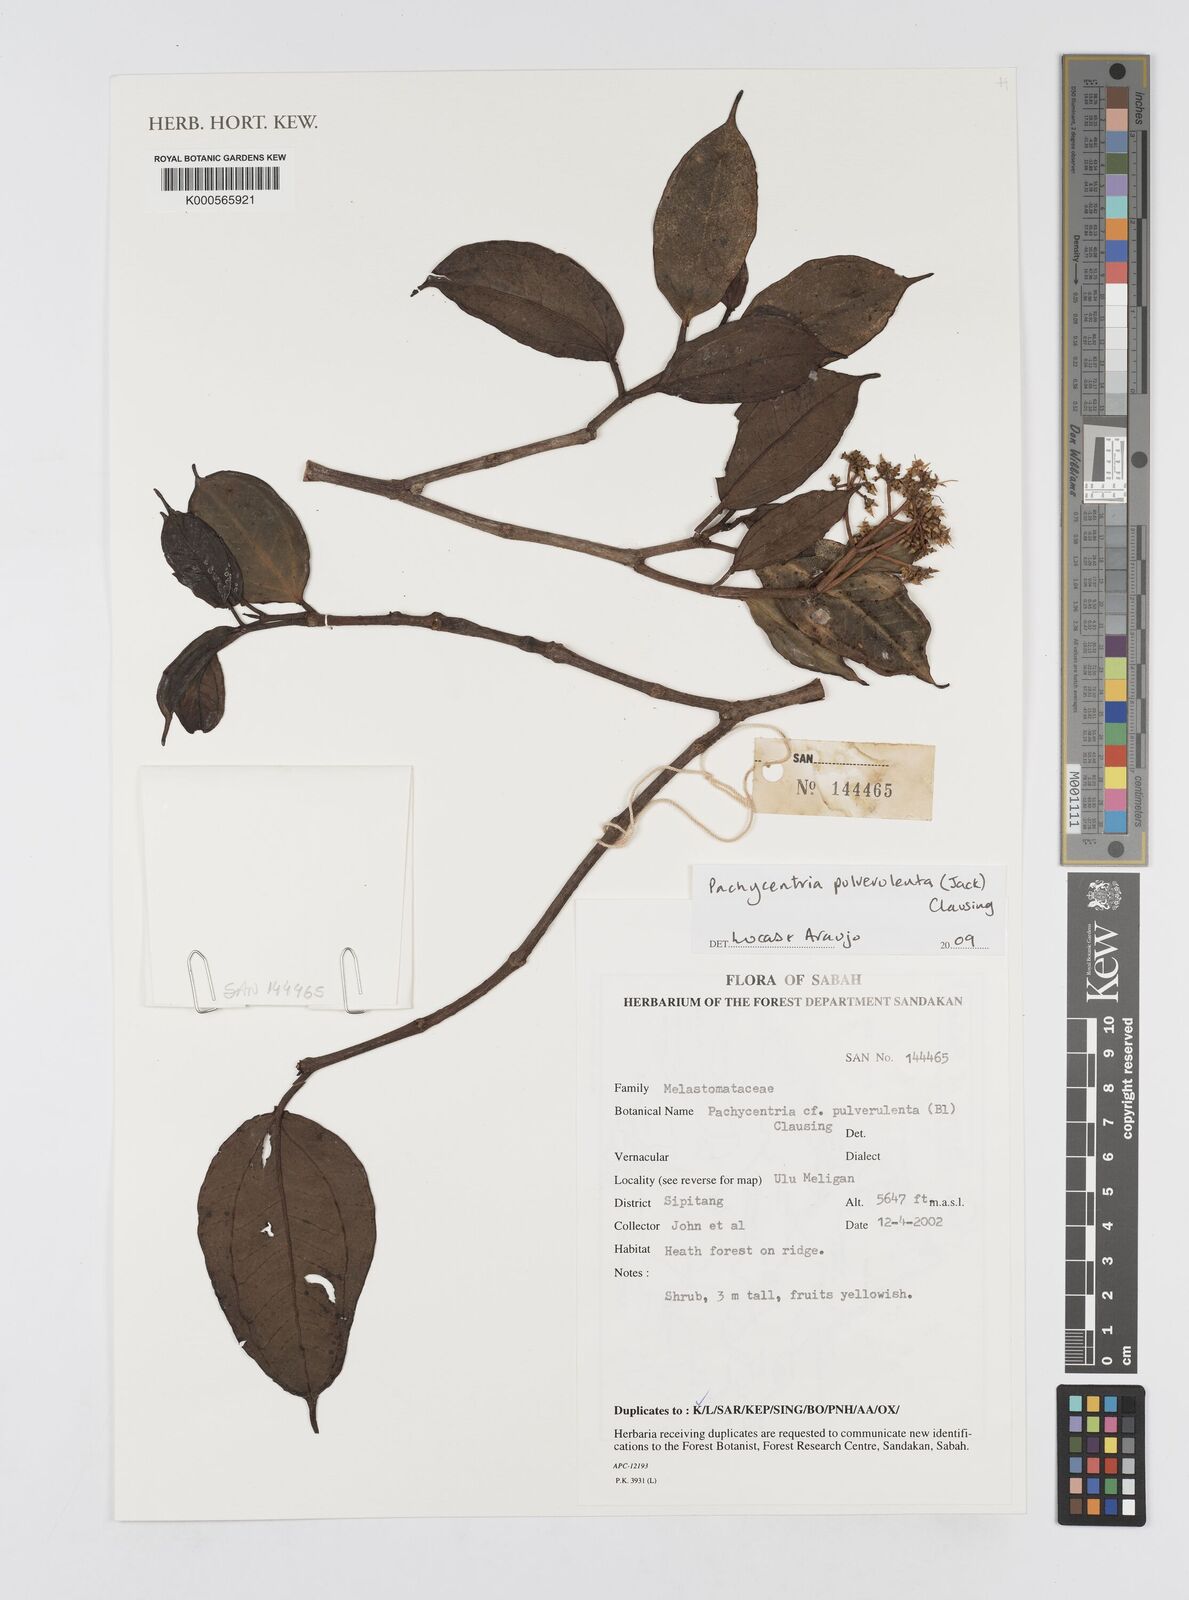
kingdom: Plantae
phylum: Tracheophyta
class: Magnoliopsida
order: Myrtales
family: Melastomataceae
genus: Pachycentria
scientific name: Pachycentria pulverulenta
